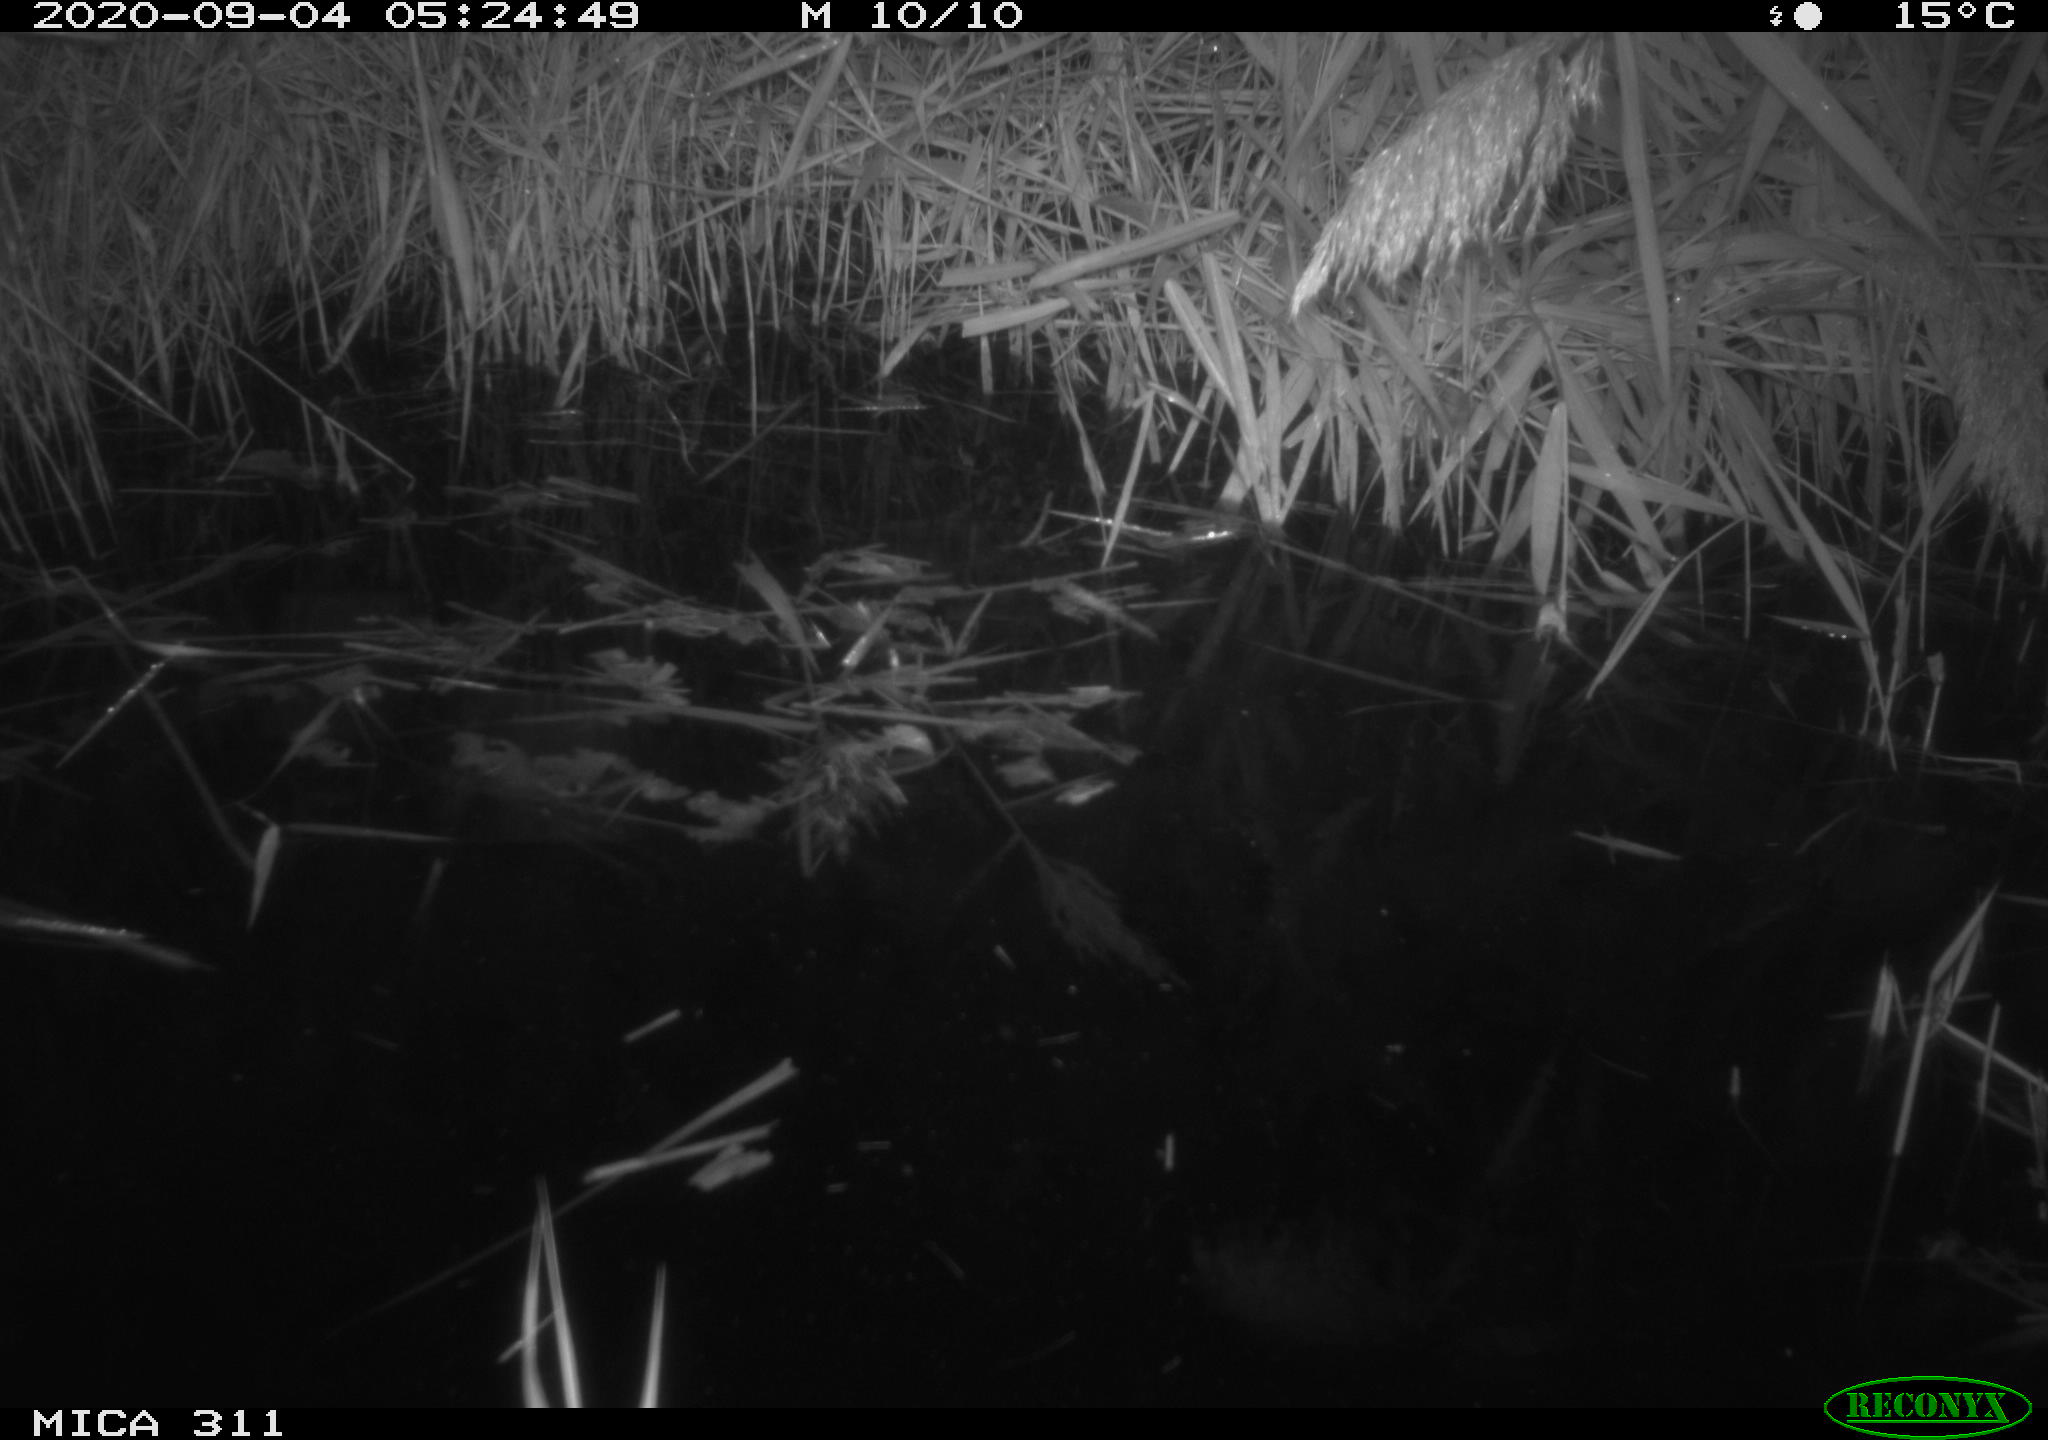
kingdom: Animalia
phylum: Chordata
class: Mammalia
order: Rodentia
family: Cricetidae
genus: Ondatra
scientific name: Ondatra zibethicus
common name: Muskrat
